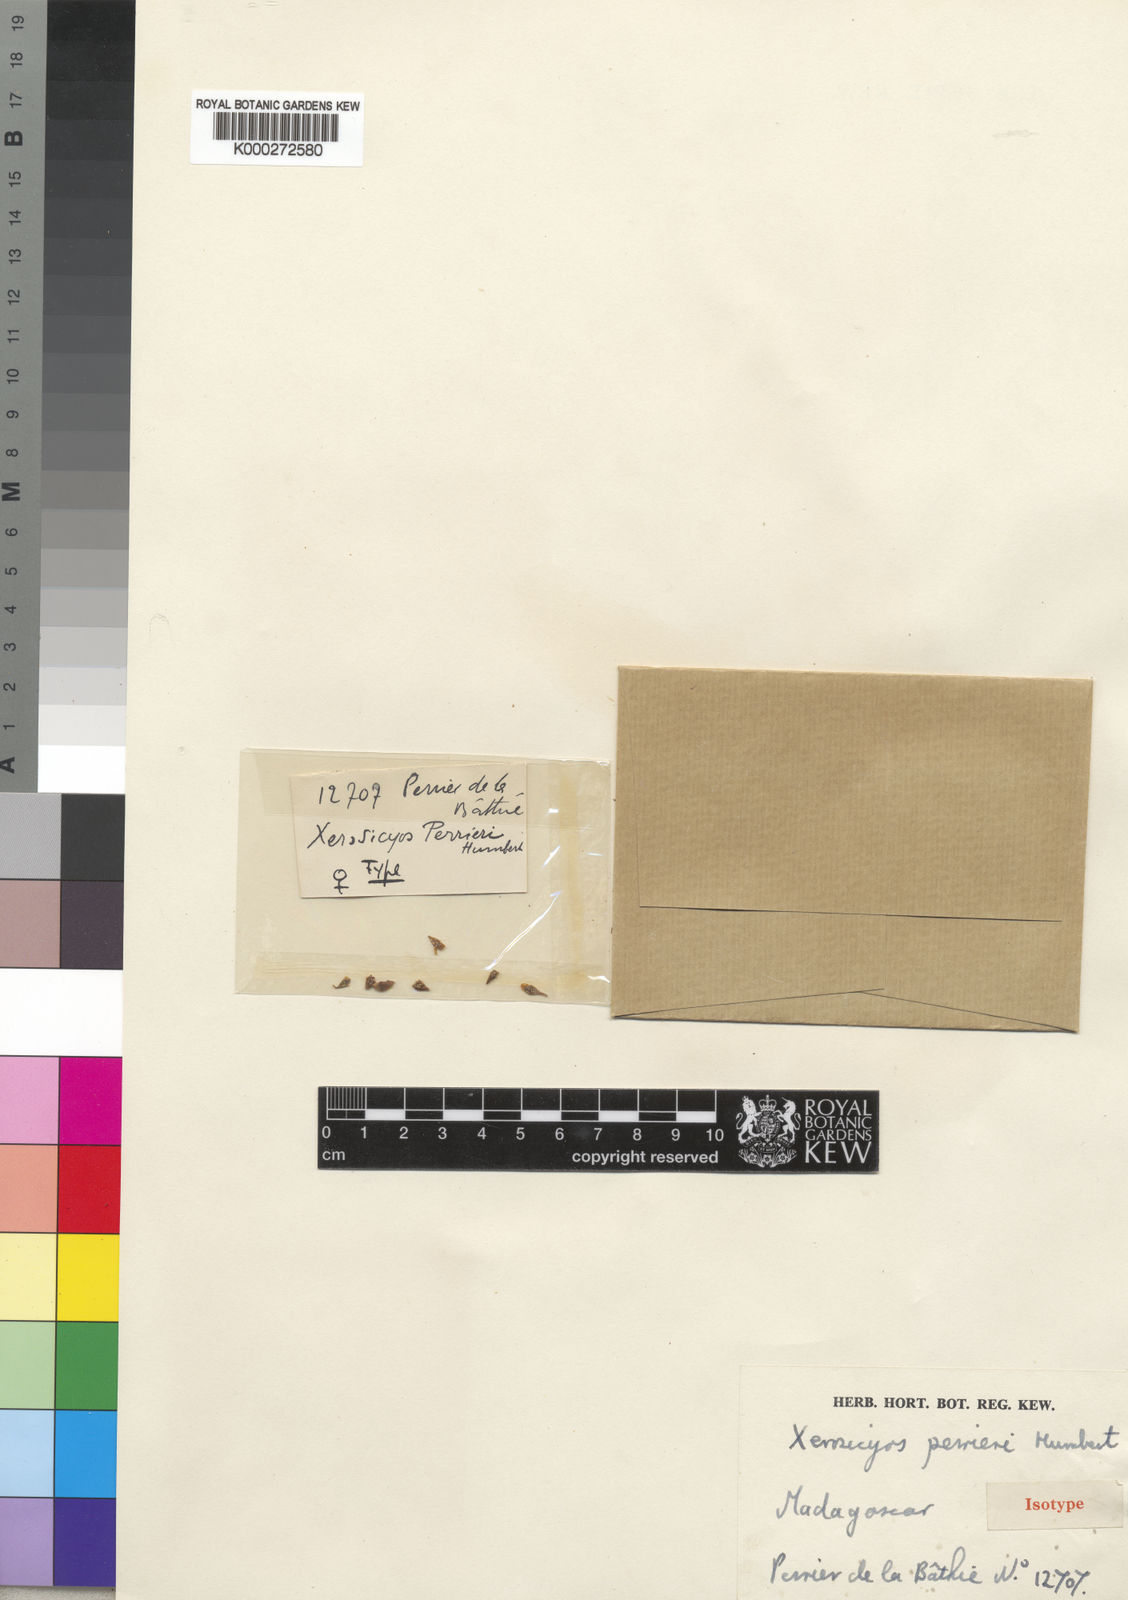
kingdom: Plantae
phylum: Tracheophyta
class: Magnoliopsida
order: Cucurbitales
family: Cucurbitaceae
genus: Xerosicyos
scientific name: Xerosicyos perrieri
